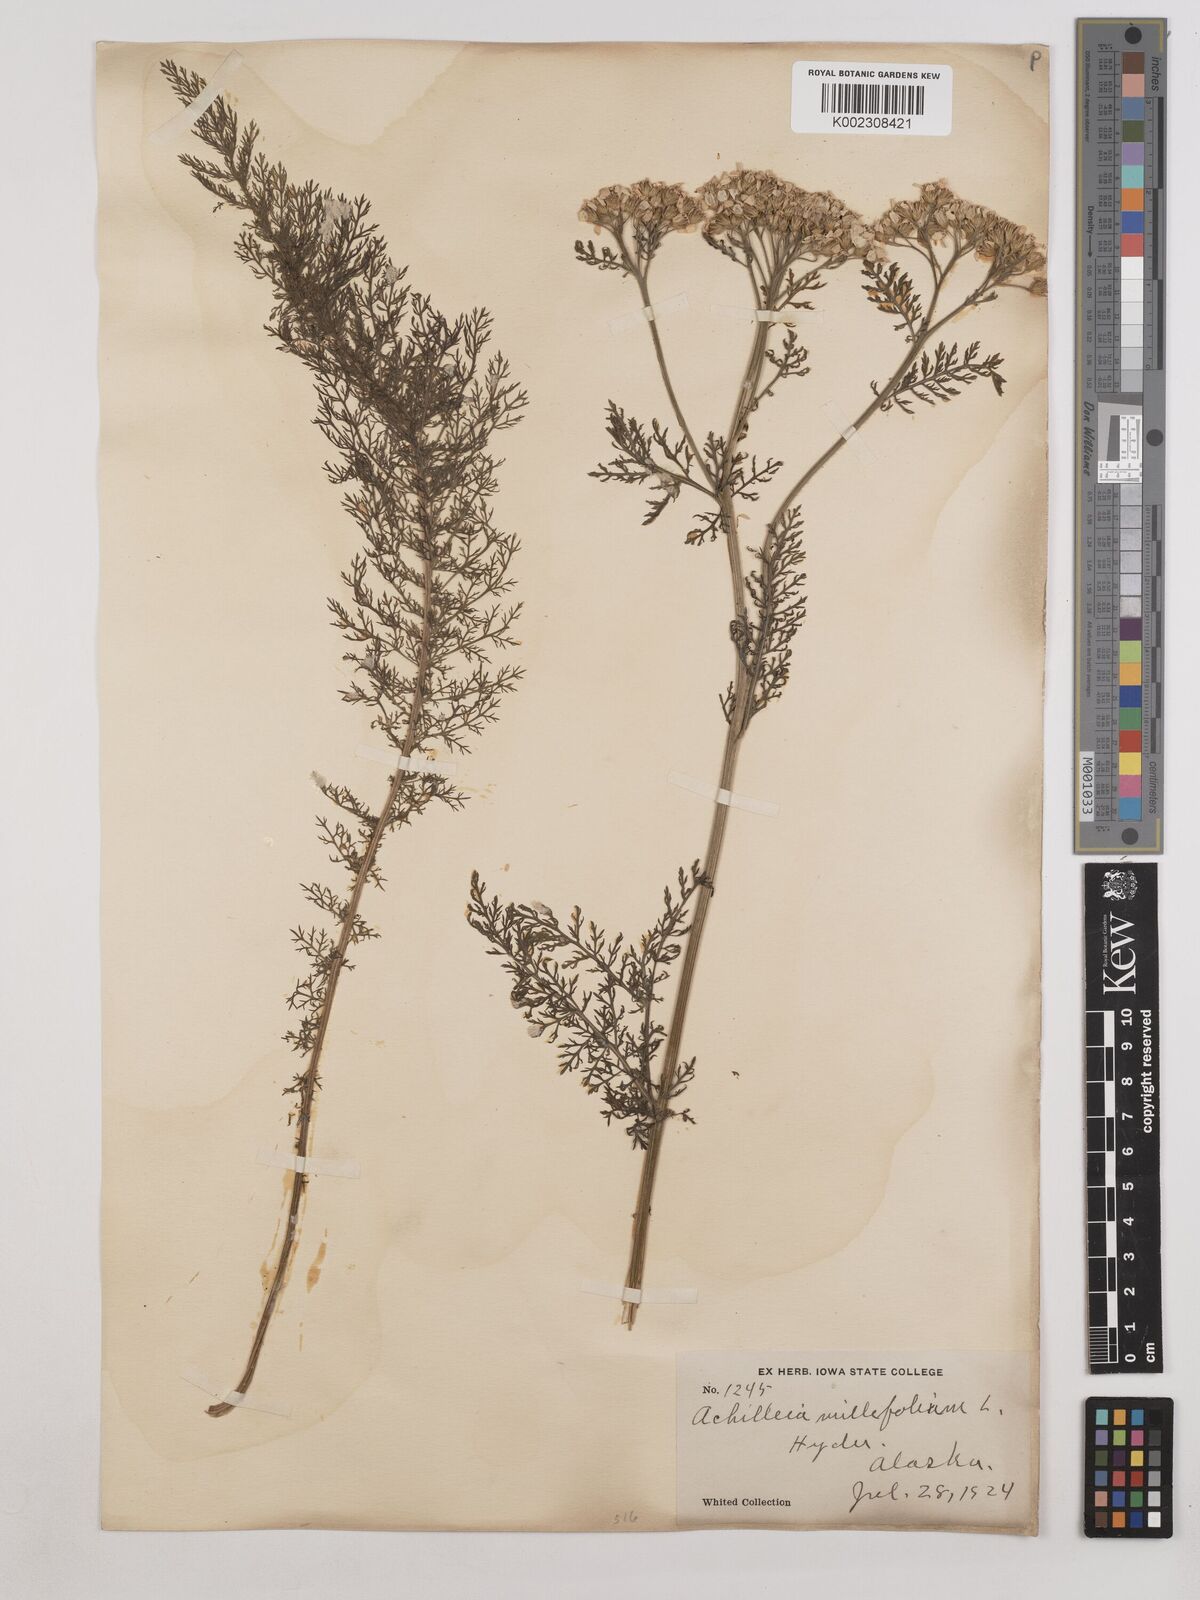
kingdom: Plantae
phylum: Tracheophyta
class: Magnoliopsida
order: Asterales
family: Asteraceae
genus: Achillea
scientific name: Achillea millefolium
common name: Yarrow
